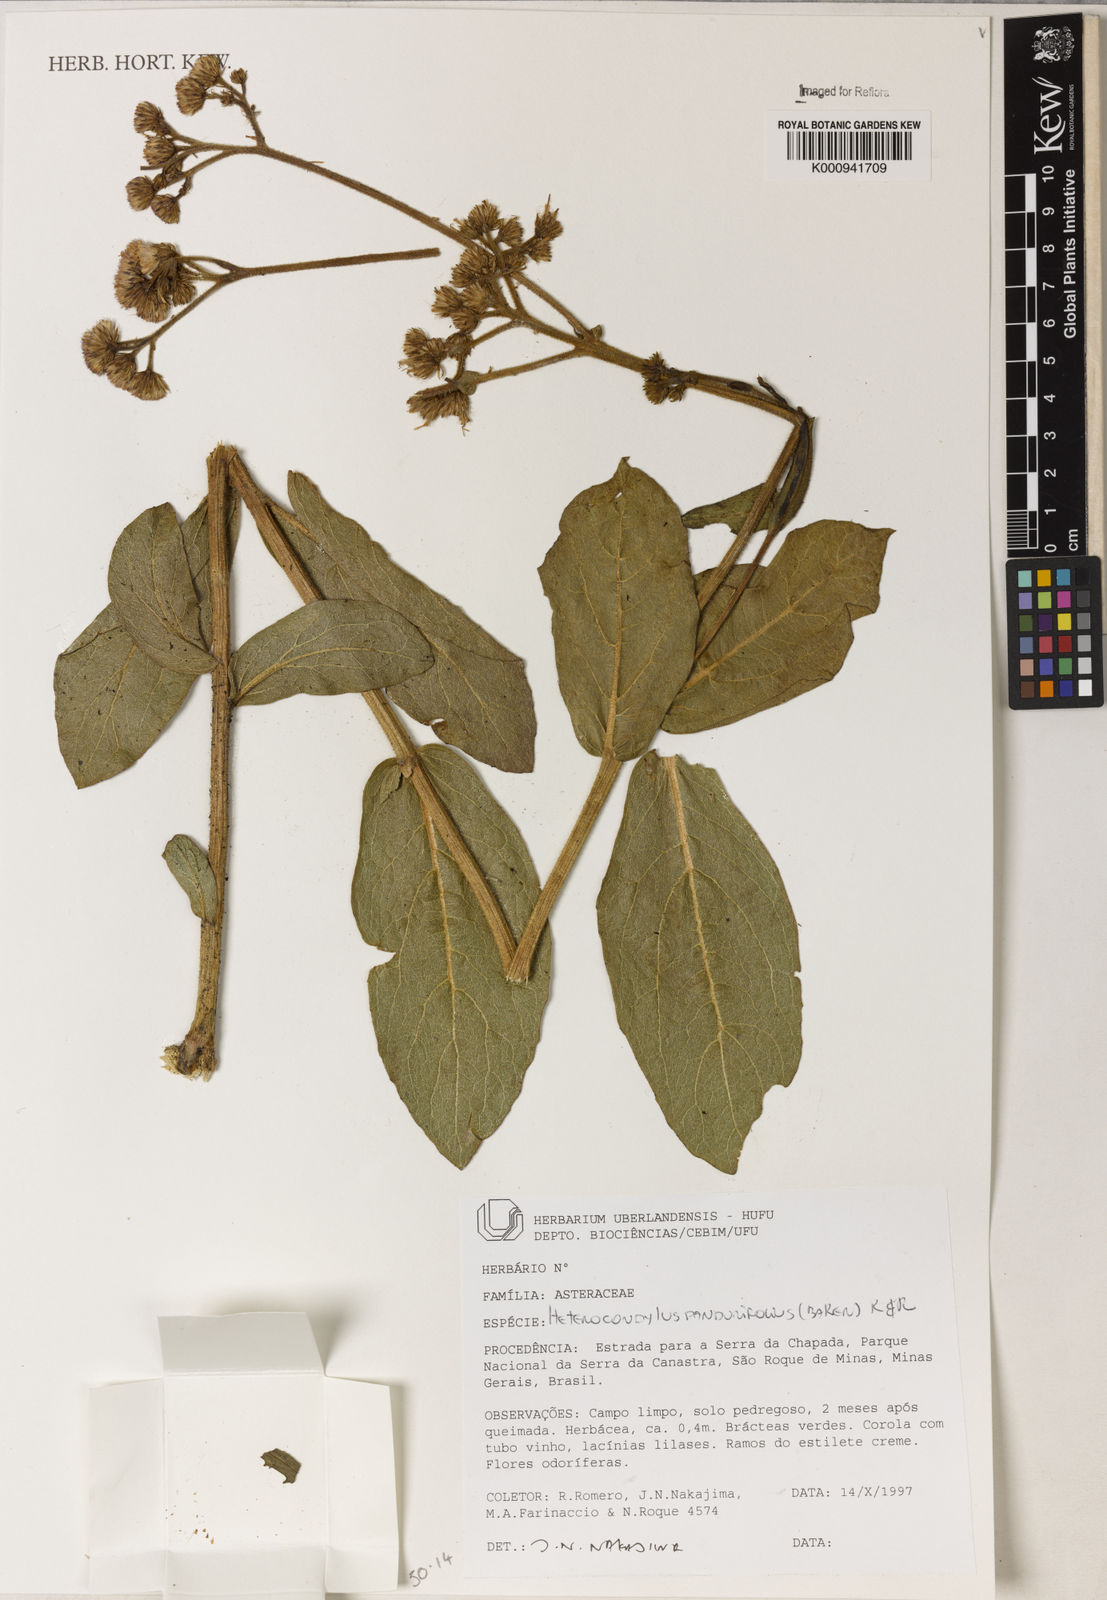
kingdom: Plantae
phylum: Tracheophyta
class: Magnoliopsida
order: Asterales
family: Asteraceae
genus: Heterocondylus
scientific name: Heterocondylus amphidictyus
